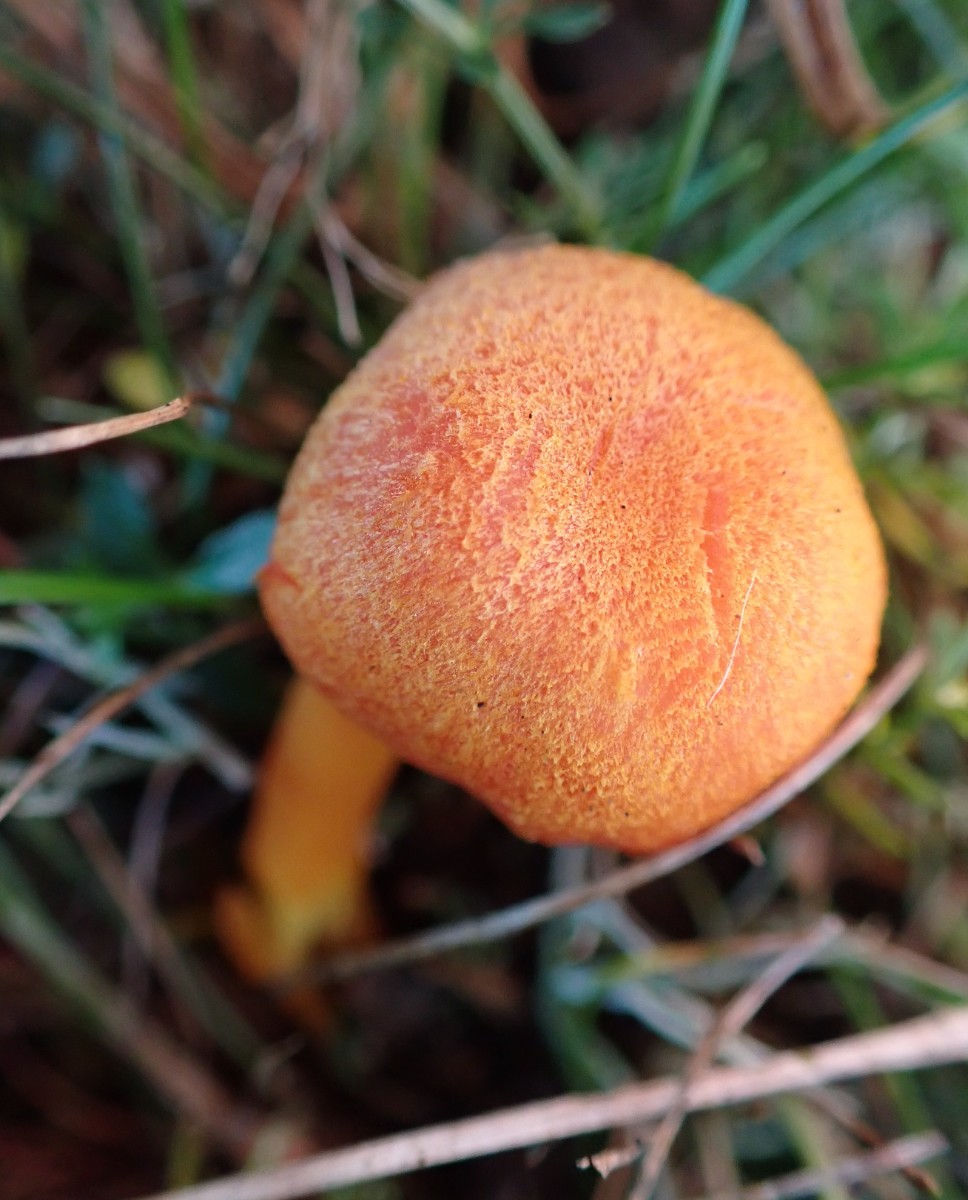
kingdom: Fungi
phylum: Basidiomycota
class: Agaricomycetes
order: Agaricales
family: Hygrophoraceae
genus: Hygrocybe
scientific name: Hygrocybe miniata
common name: mønje-vokshat
